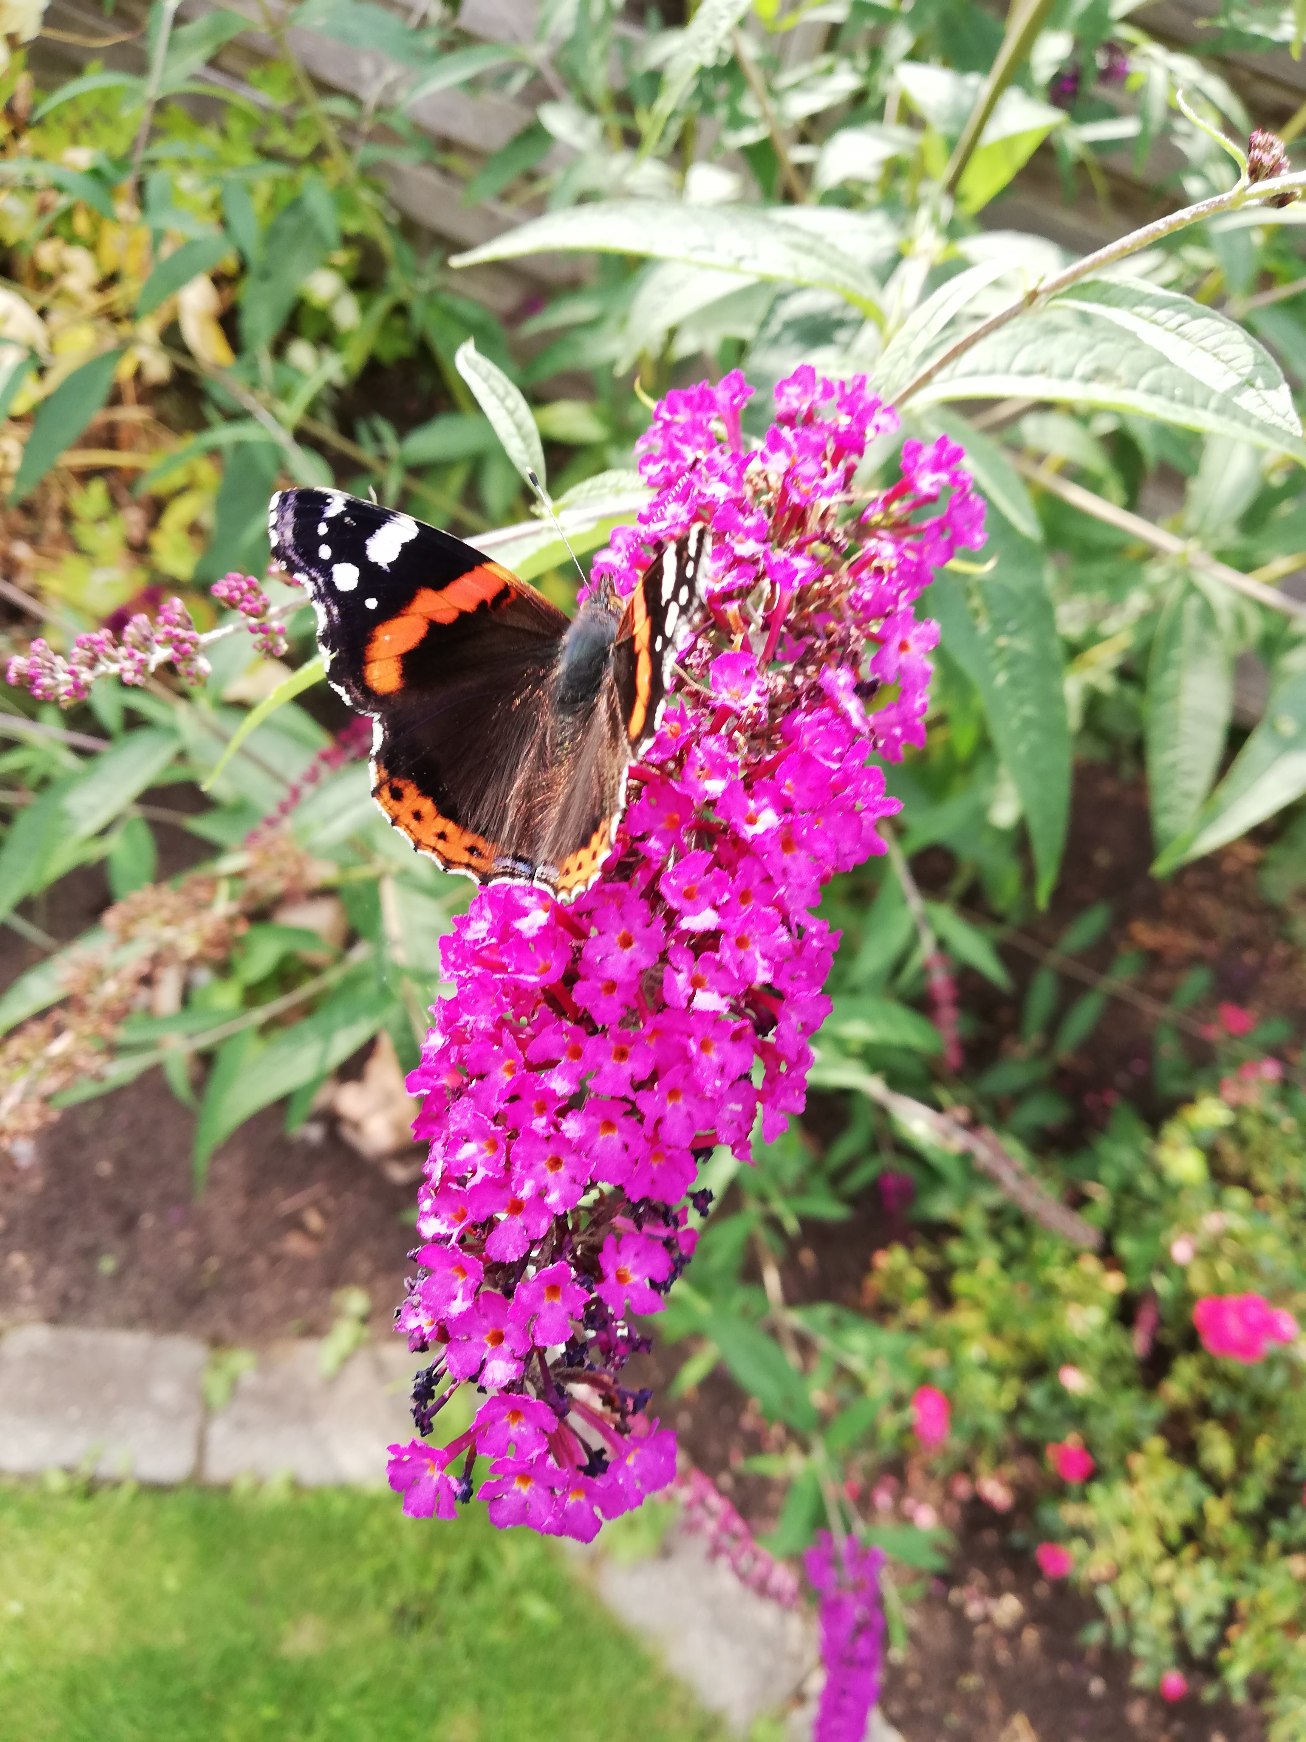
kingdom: Animalia
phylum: Arthropoda
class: Insecta
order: Lepidoptera
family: Nymphalidae
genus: Vanessa
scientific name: Vanessa atalanta
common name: Admiral
